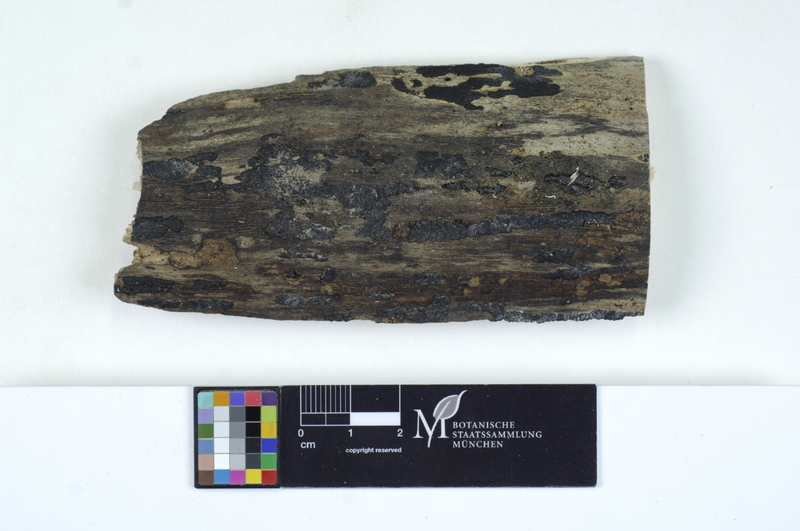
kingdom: Plantae
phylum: Tracheophyta
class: Magnoliopsida
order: Malpighiales
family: Salicaceae
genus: Populus
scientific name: Populus
